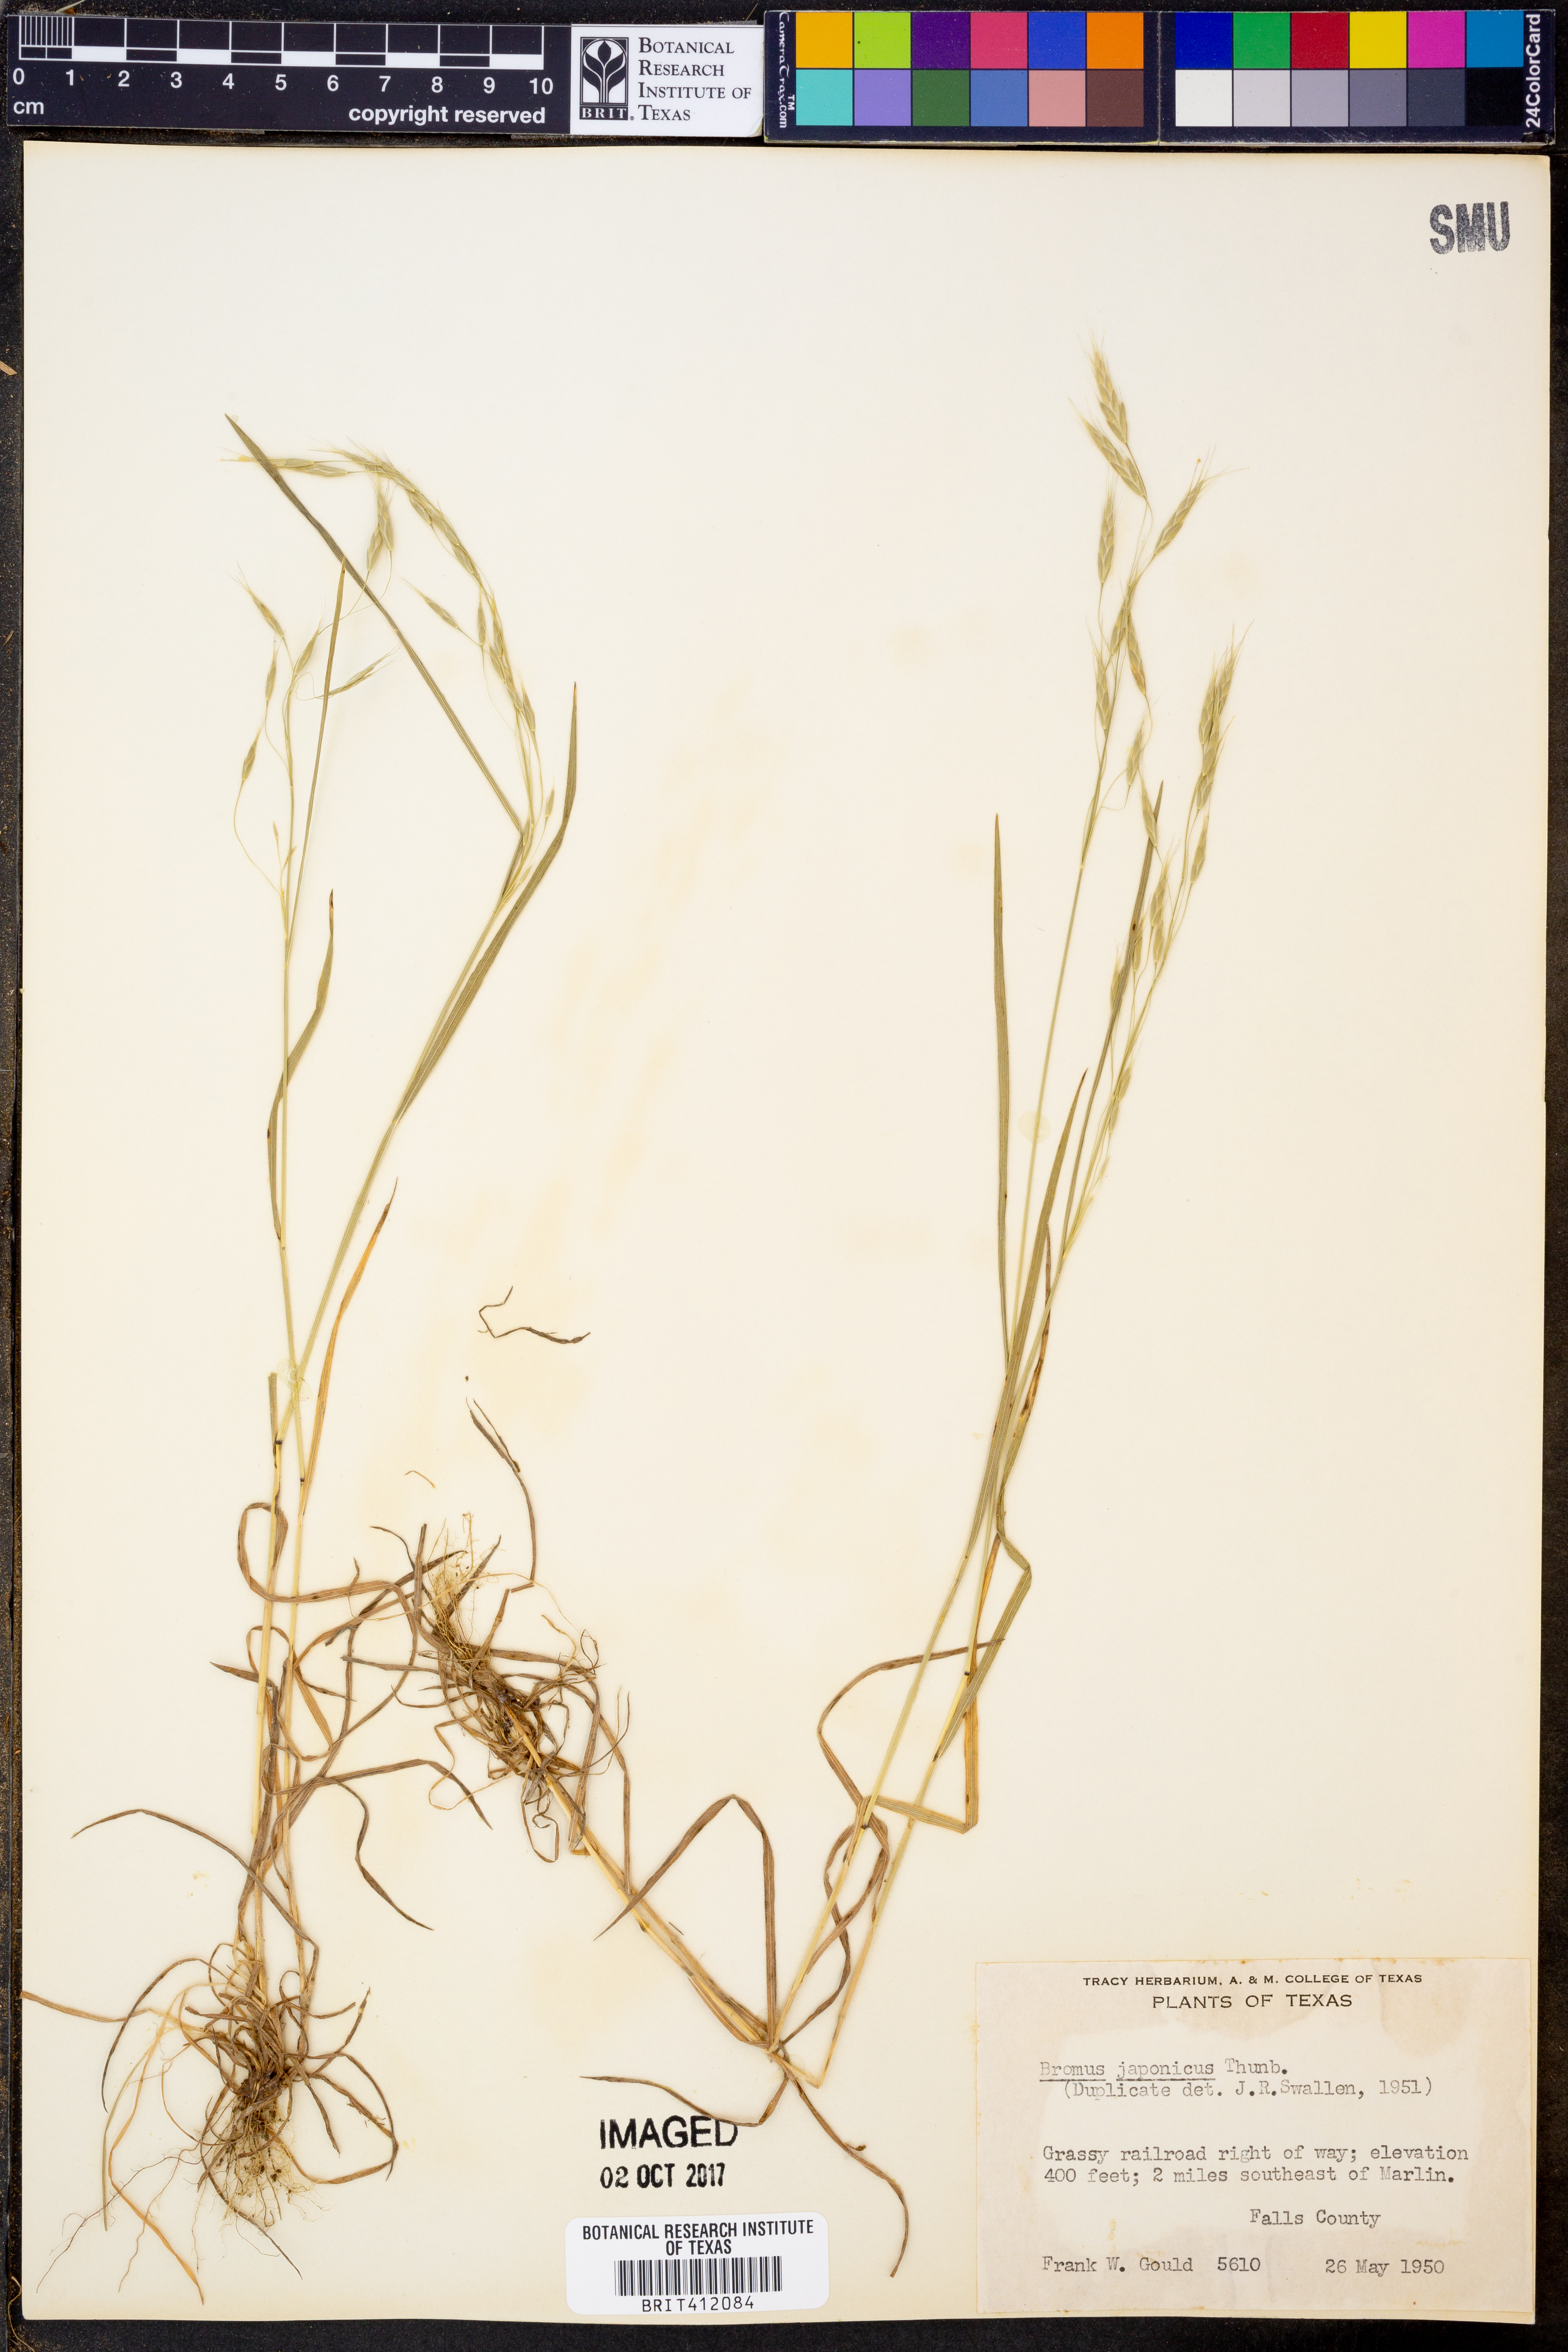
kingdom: Plantae
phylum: Tracheophyta
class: Liliopsida
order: Poales
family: Poaceae
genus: Bromus
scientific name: Bromus japonicus
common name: Japanese brome
